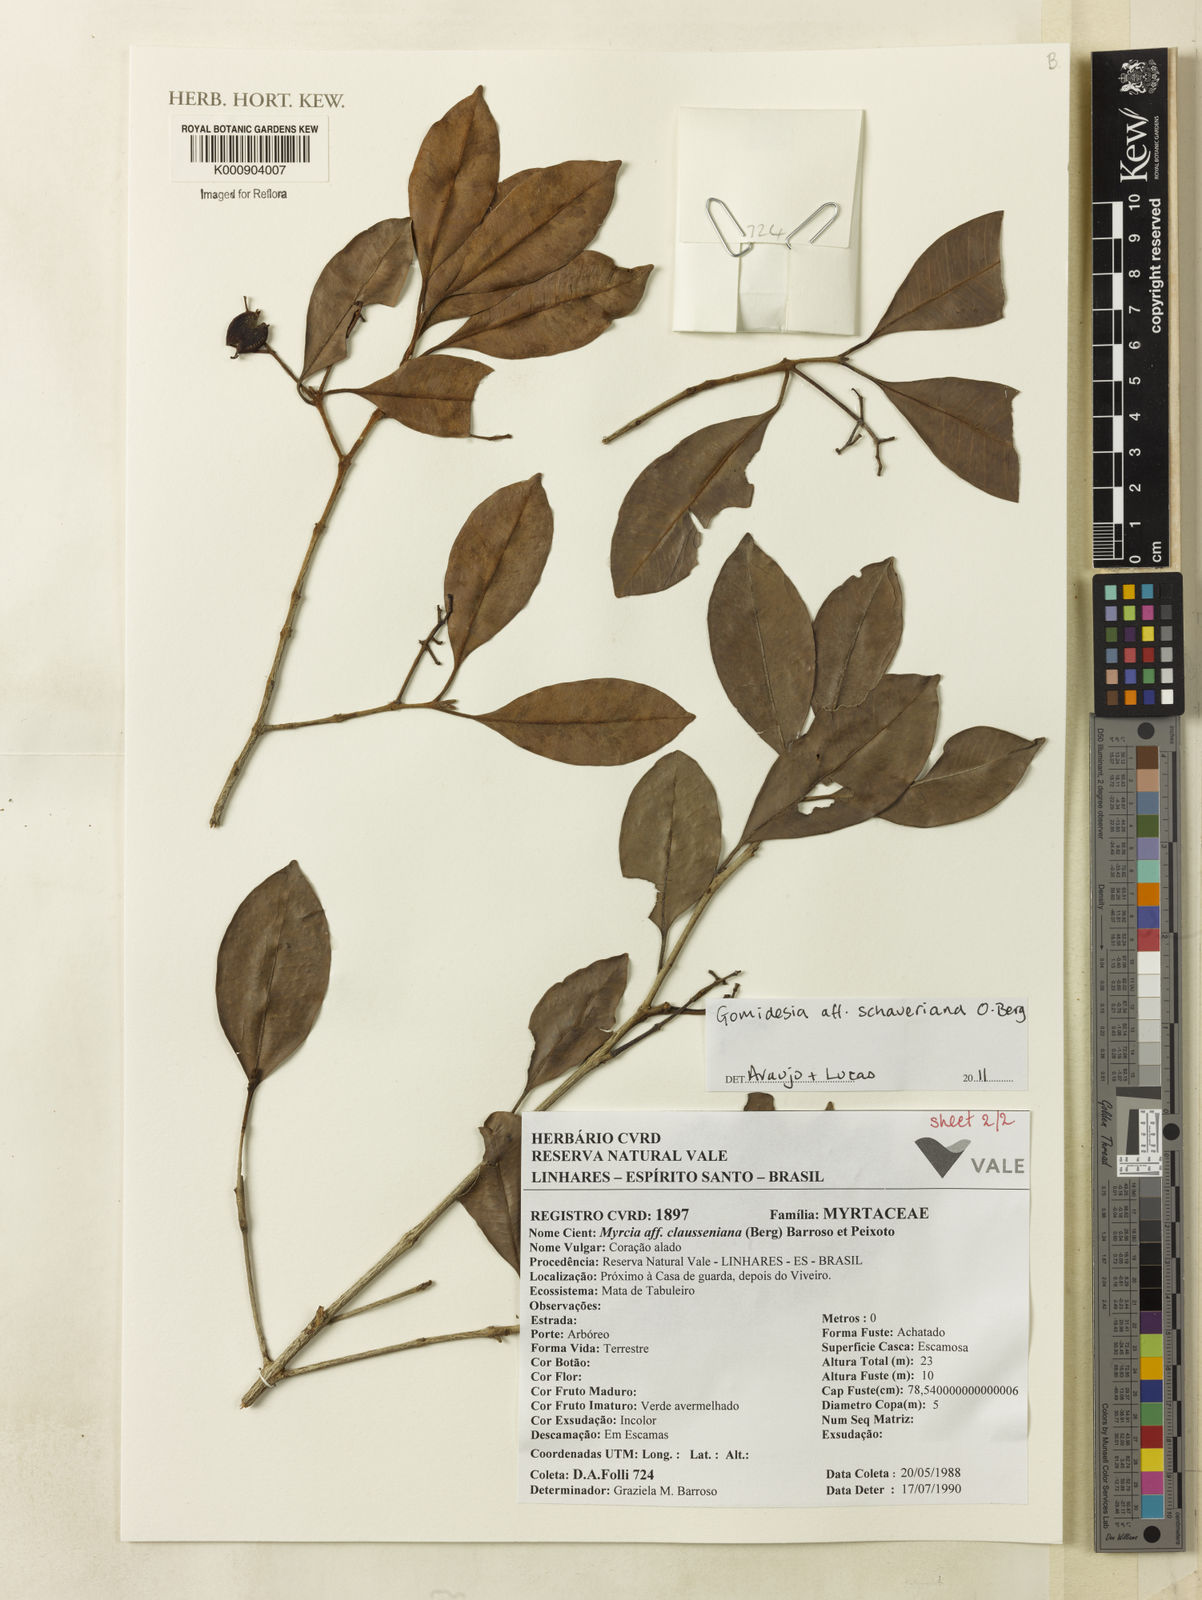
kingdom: Plantae
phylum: Tracheophyta
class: Magnoliopsida
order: Myrtales
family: Myrtaceae
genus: Myrcia
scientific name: Myrcia freyreissiana
